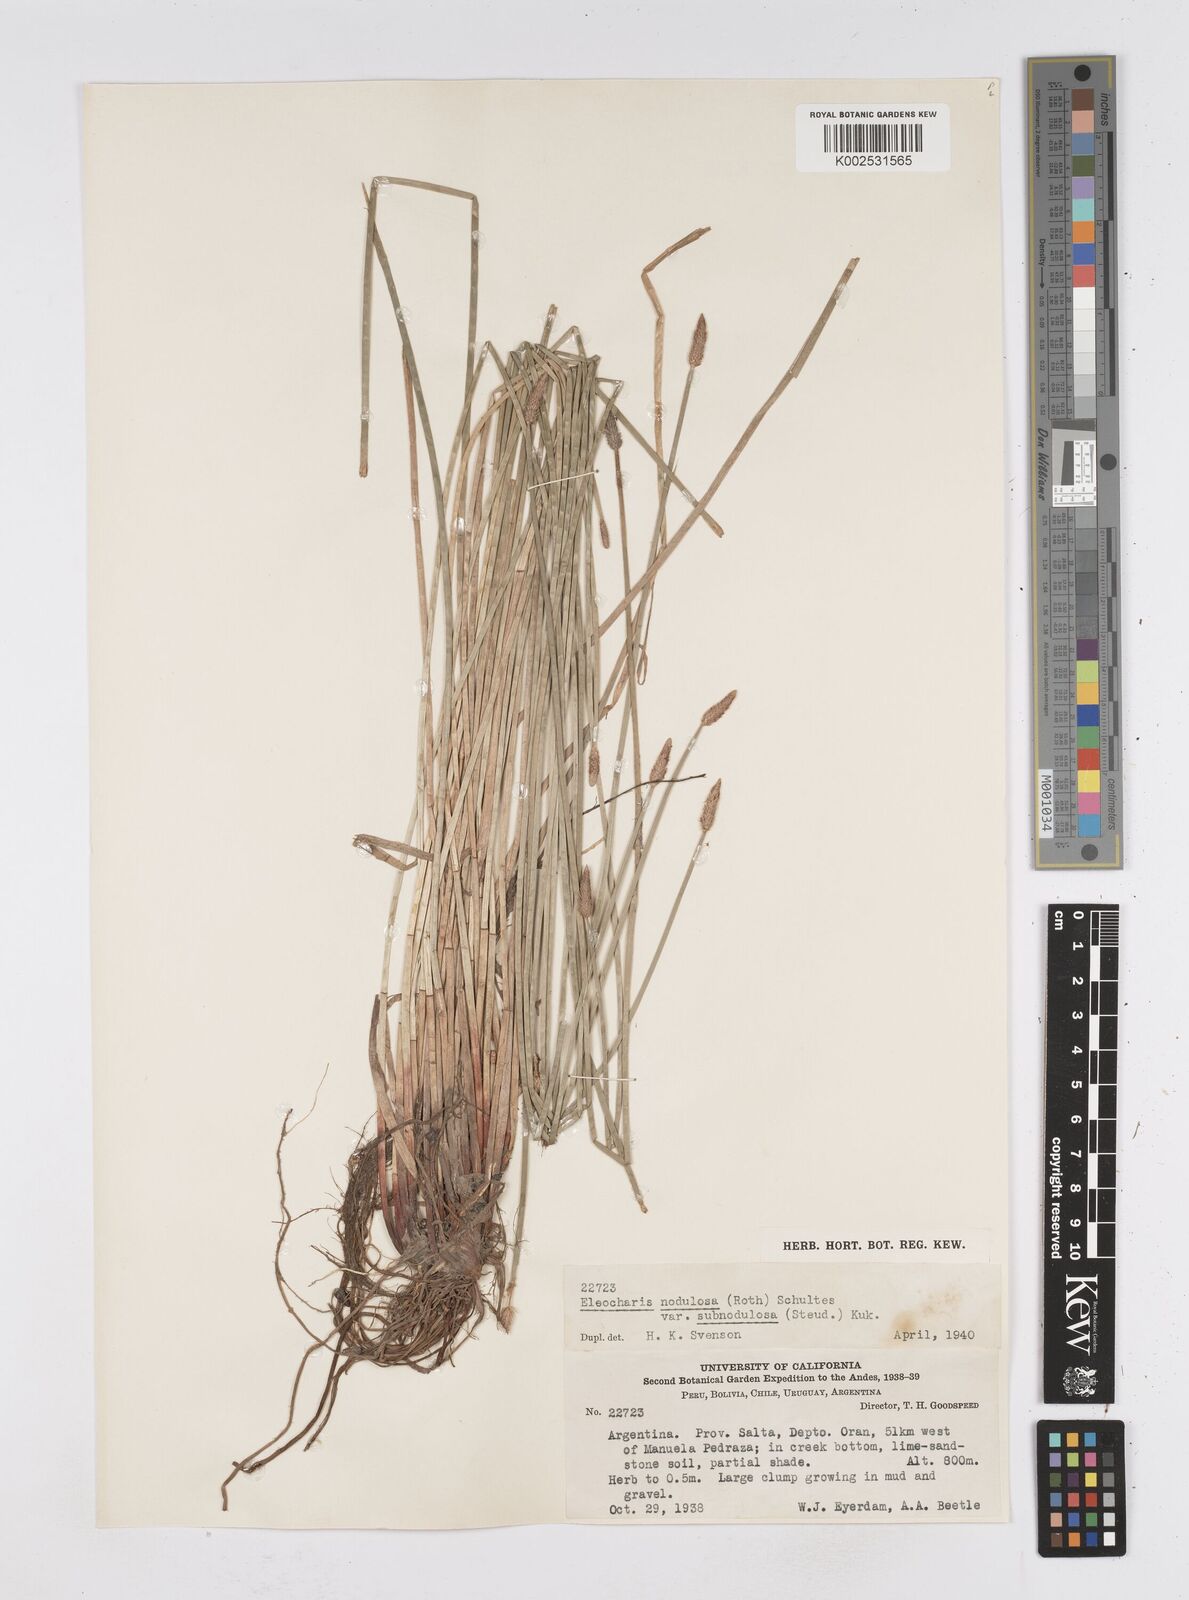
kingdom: Plantae
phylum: Tracheophyta
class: Liliopsida
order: Poales
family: Cyperaceae
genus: Eleocharis
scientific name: Eleocharis montana
